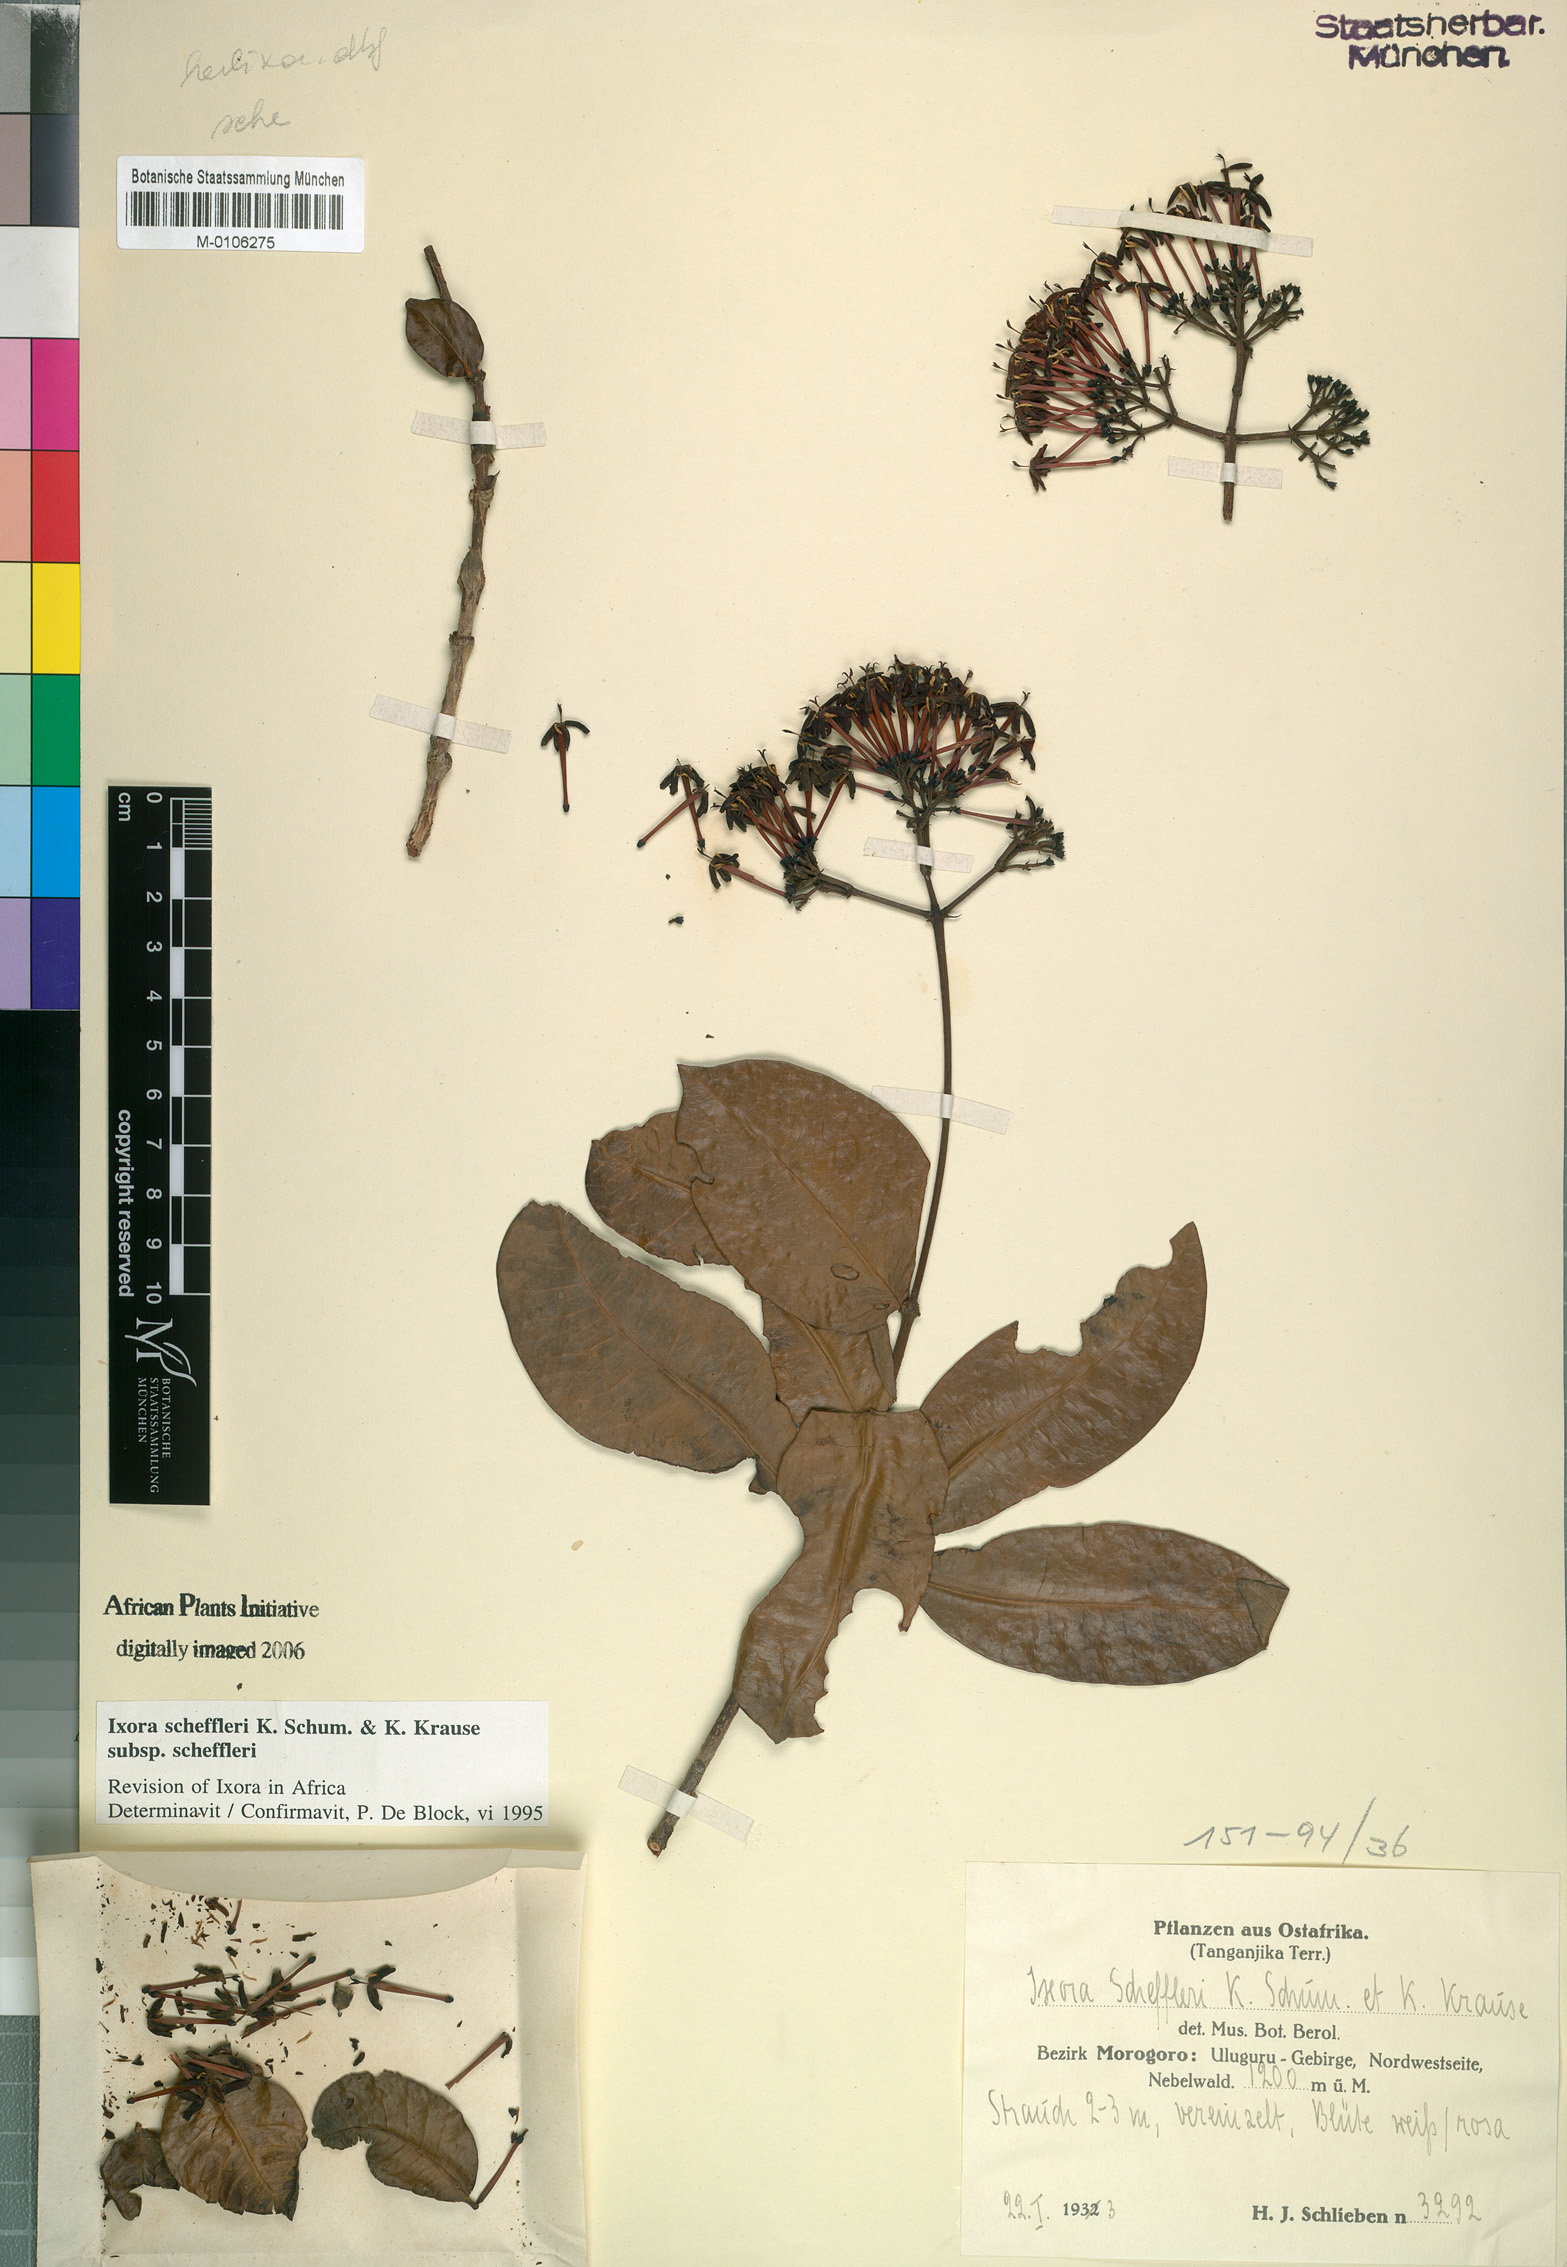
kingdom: Plantae
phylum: Tracheophyta
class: Magnoliopsida
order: Gentianales
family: Rubiaceae
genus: Ixora
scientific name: Ixora scheffleri
